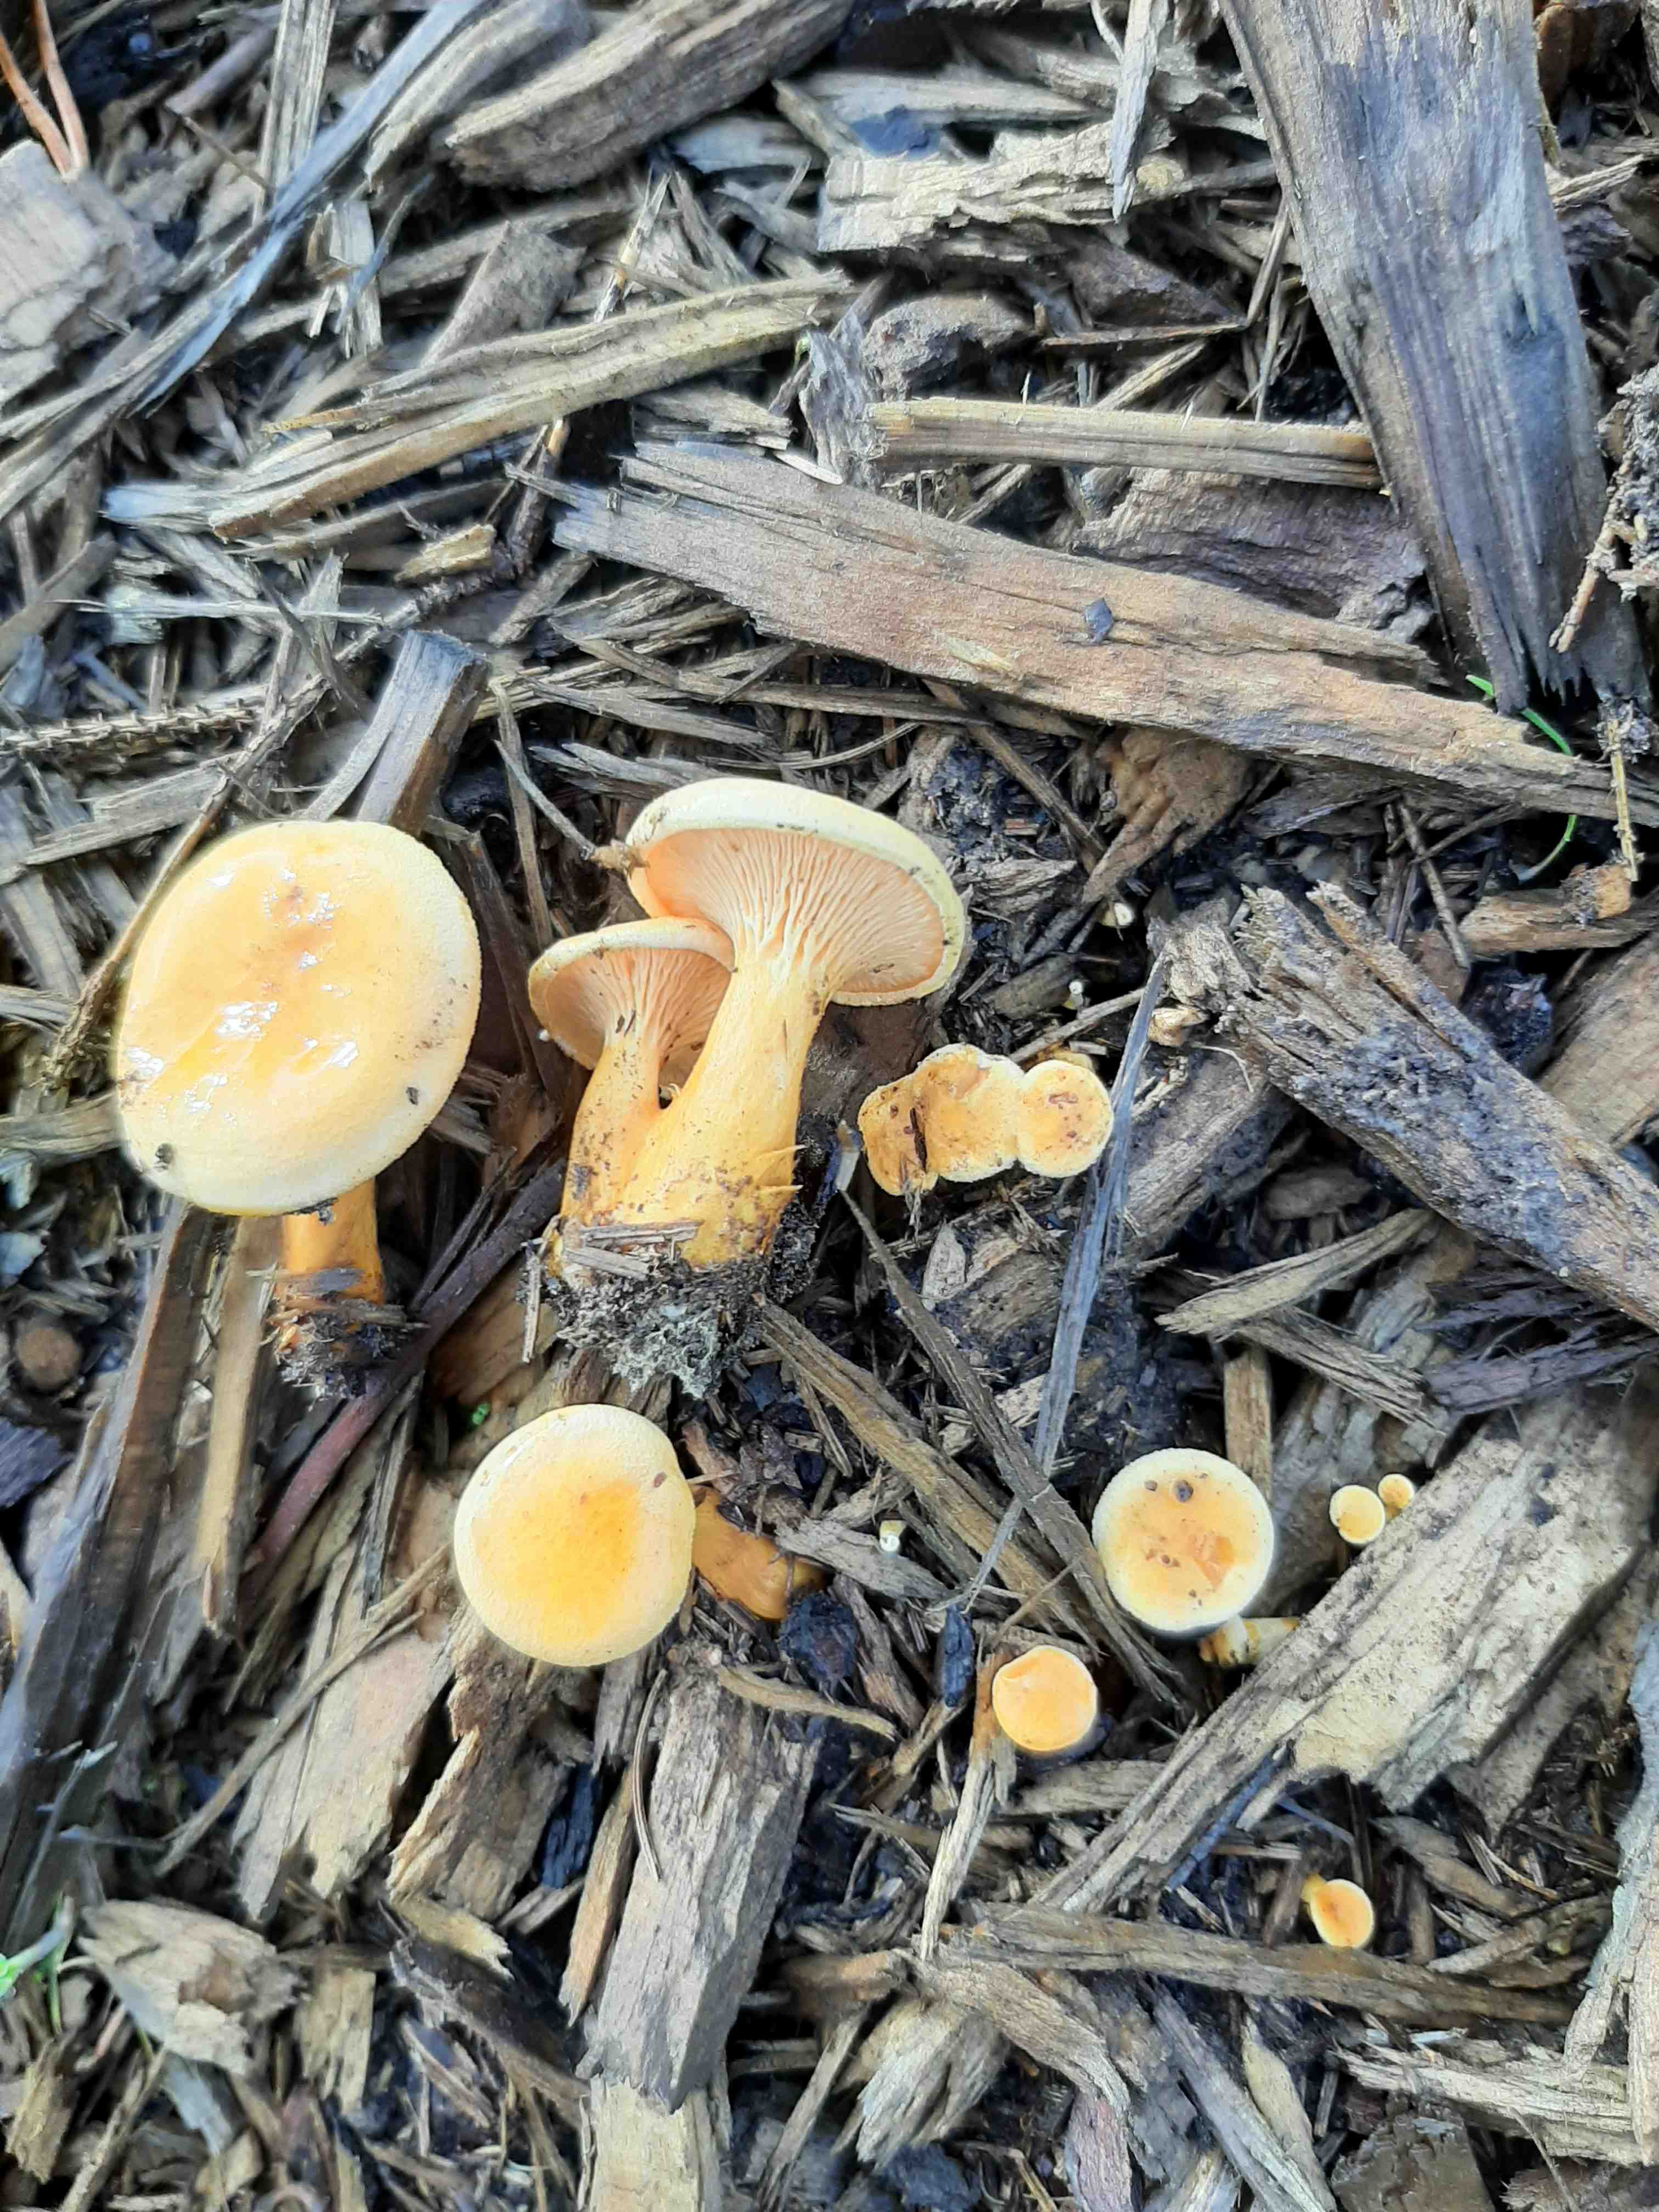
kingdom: Fungi
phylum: Basidiomycota
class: Agaricomycetes
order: Boletales
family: Hygrophoropsidaceae
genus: Hygrophoropsis
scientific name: Hygrophoropsis aurantiaca
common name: almindelig orangekantarel
